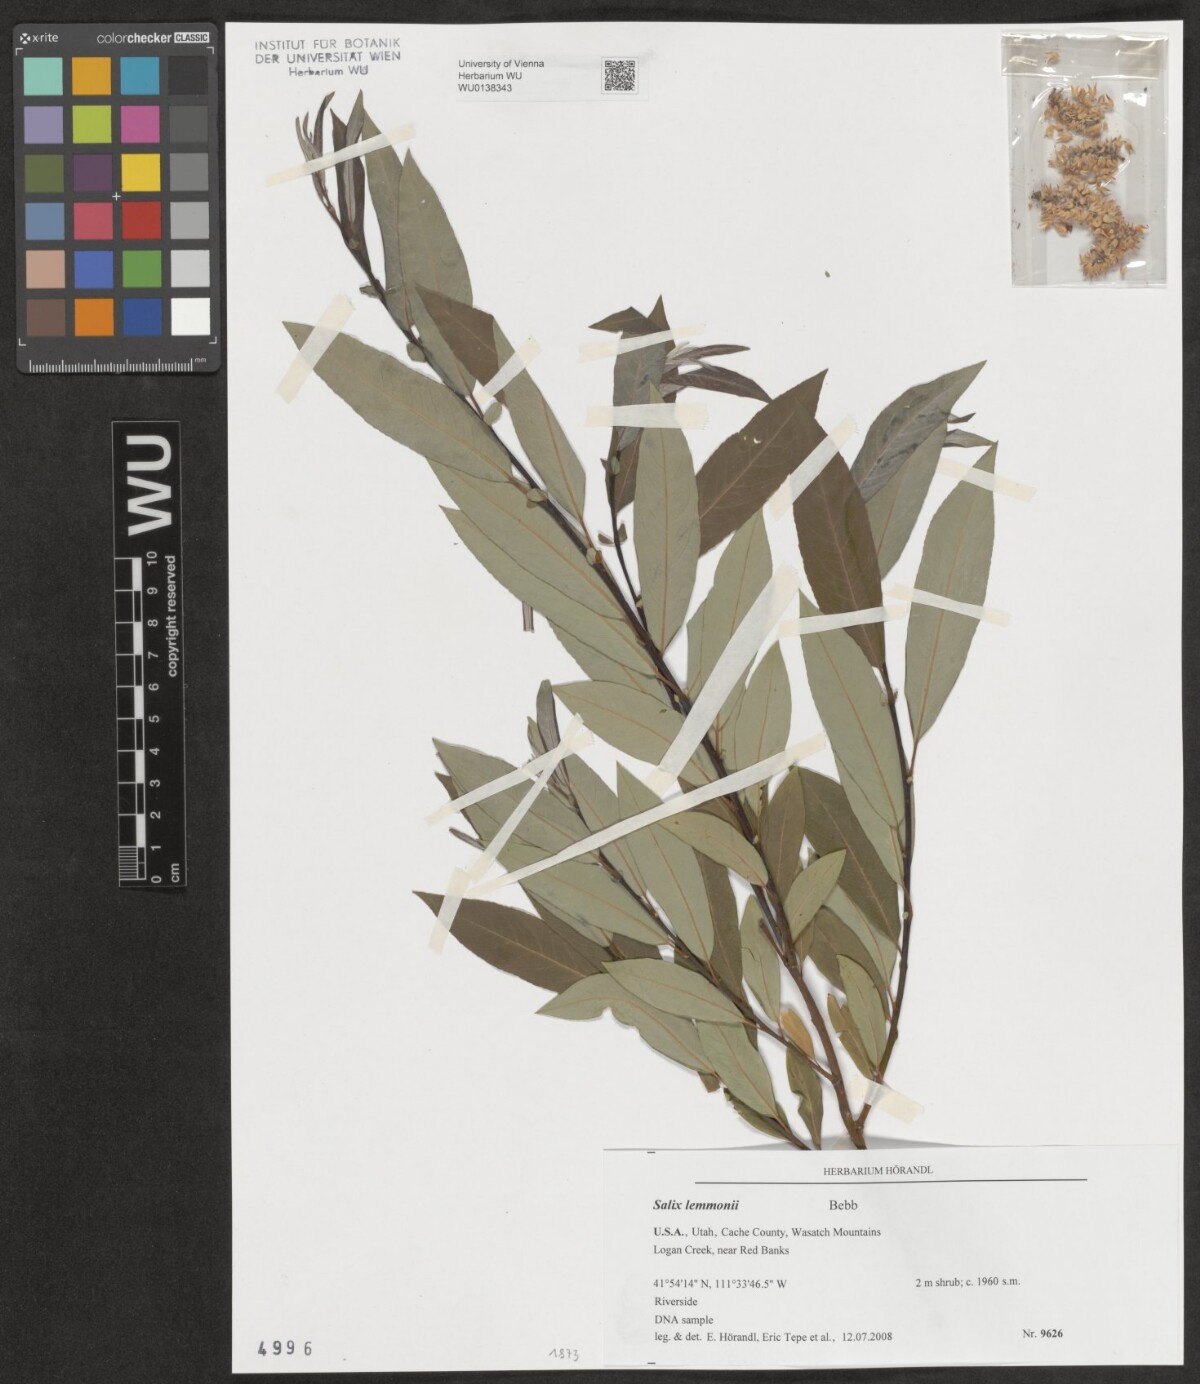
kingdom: Plantae
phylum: Tracheophyta
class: Magnoliopsida
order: Malpighiales
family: Salicaceae
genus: Salix
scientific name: Salix lemmonii
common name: Lemmon's willow
